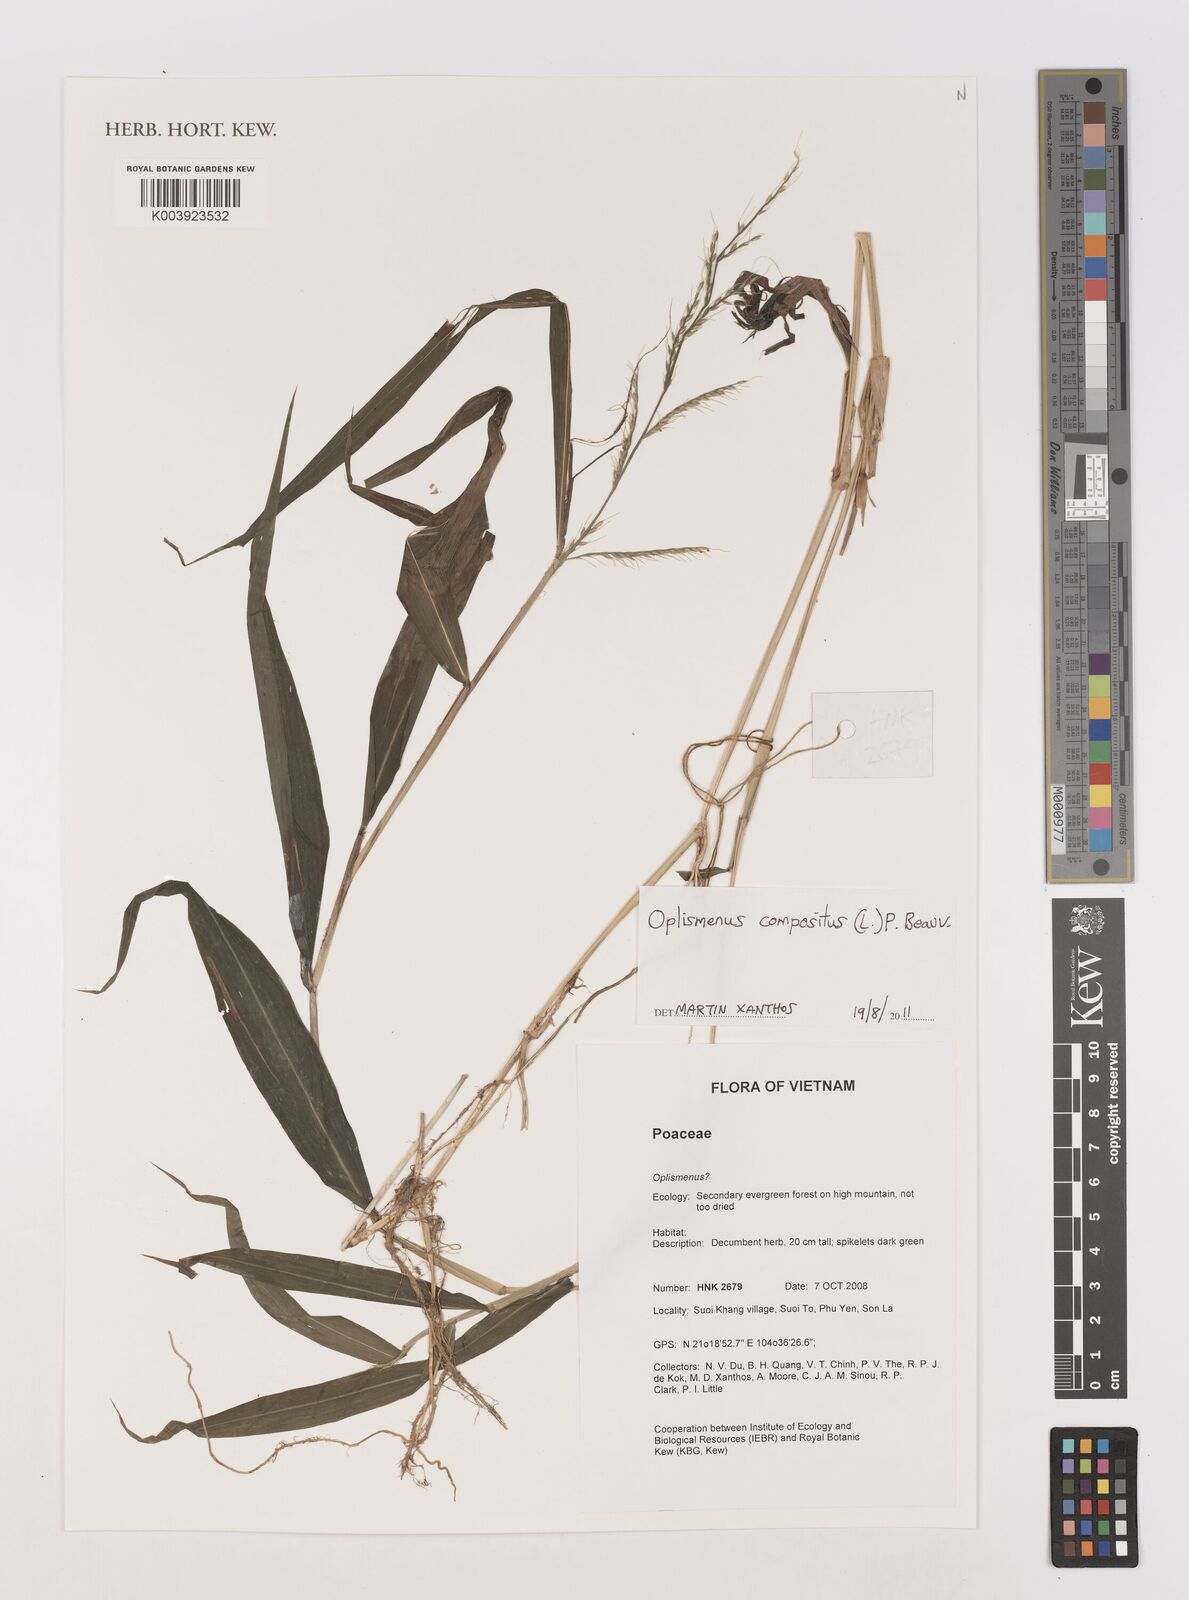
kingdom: Plantae
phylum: Tracheophyta
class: Liliopsida
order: Poales
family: Poaceae
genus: Oplismenus
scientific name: Oplismenus compositus
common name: Running mountain grass
